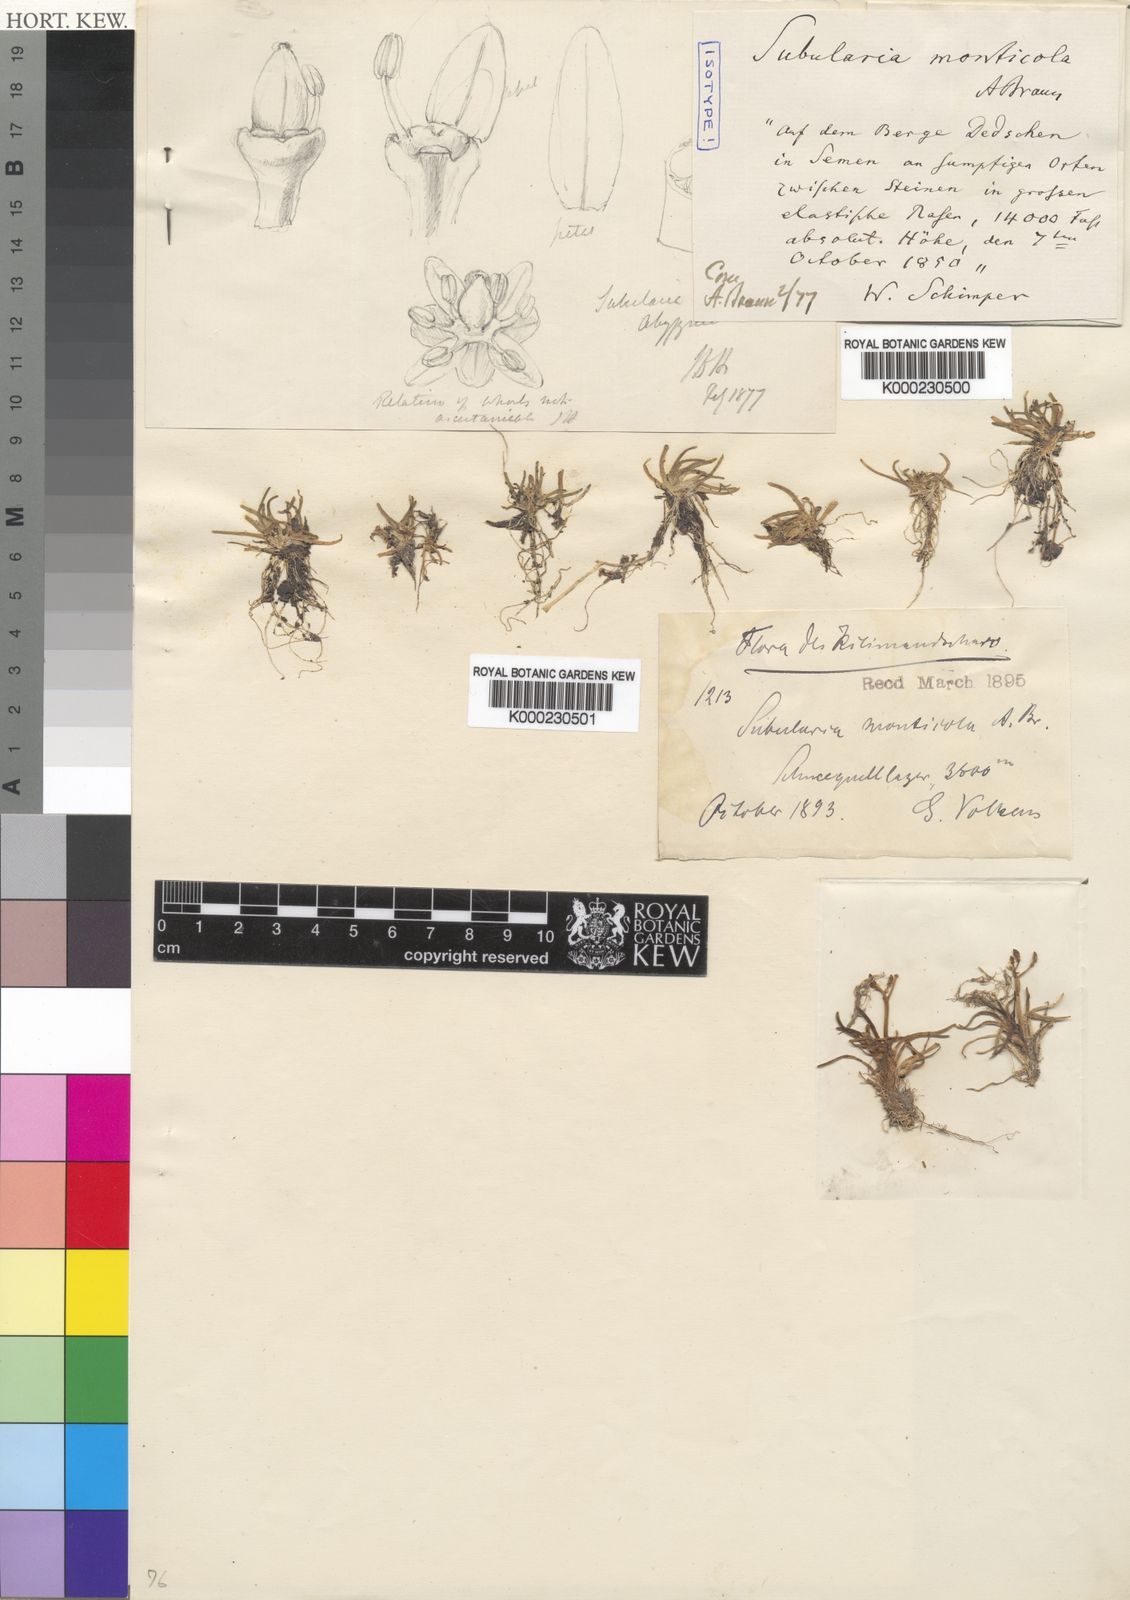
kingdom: Plantae
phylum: Tracheophyta
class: Magnoliopsida
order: Brassicales
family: Brassicaceae
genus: Subularia
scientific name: Subularia monticola
